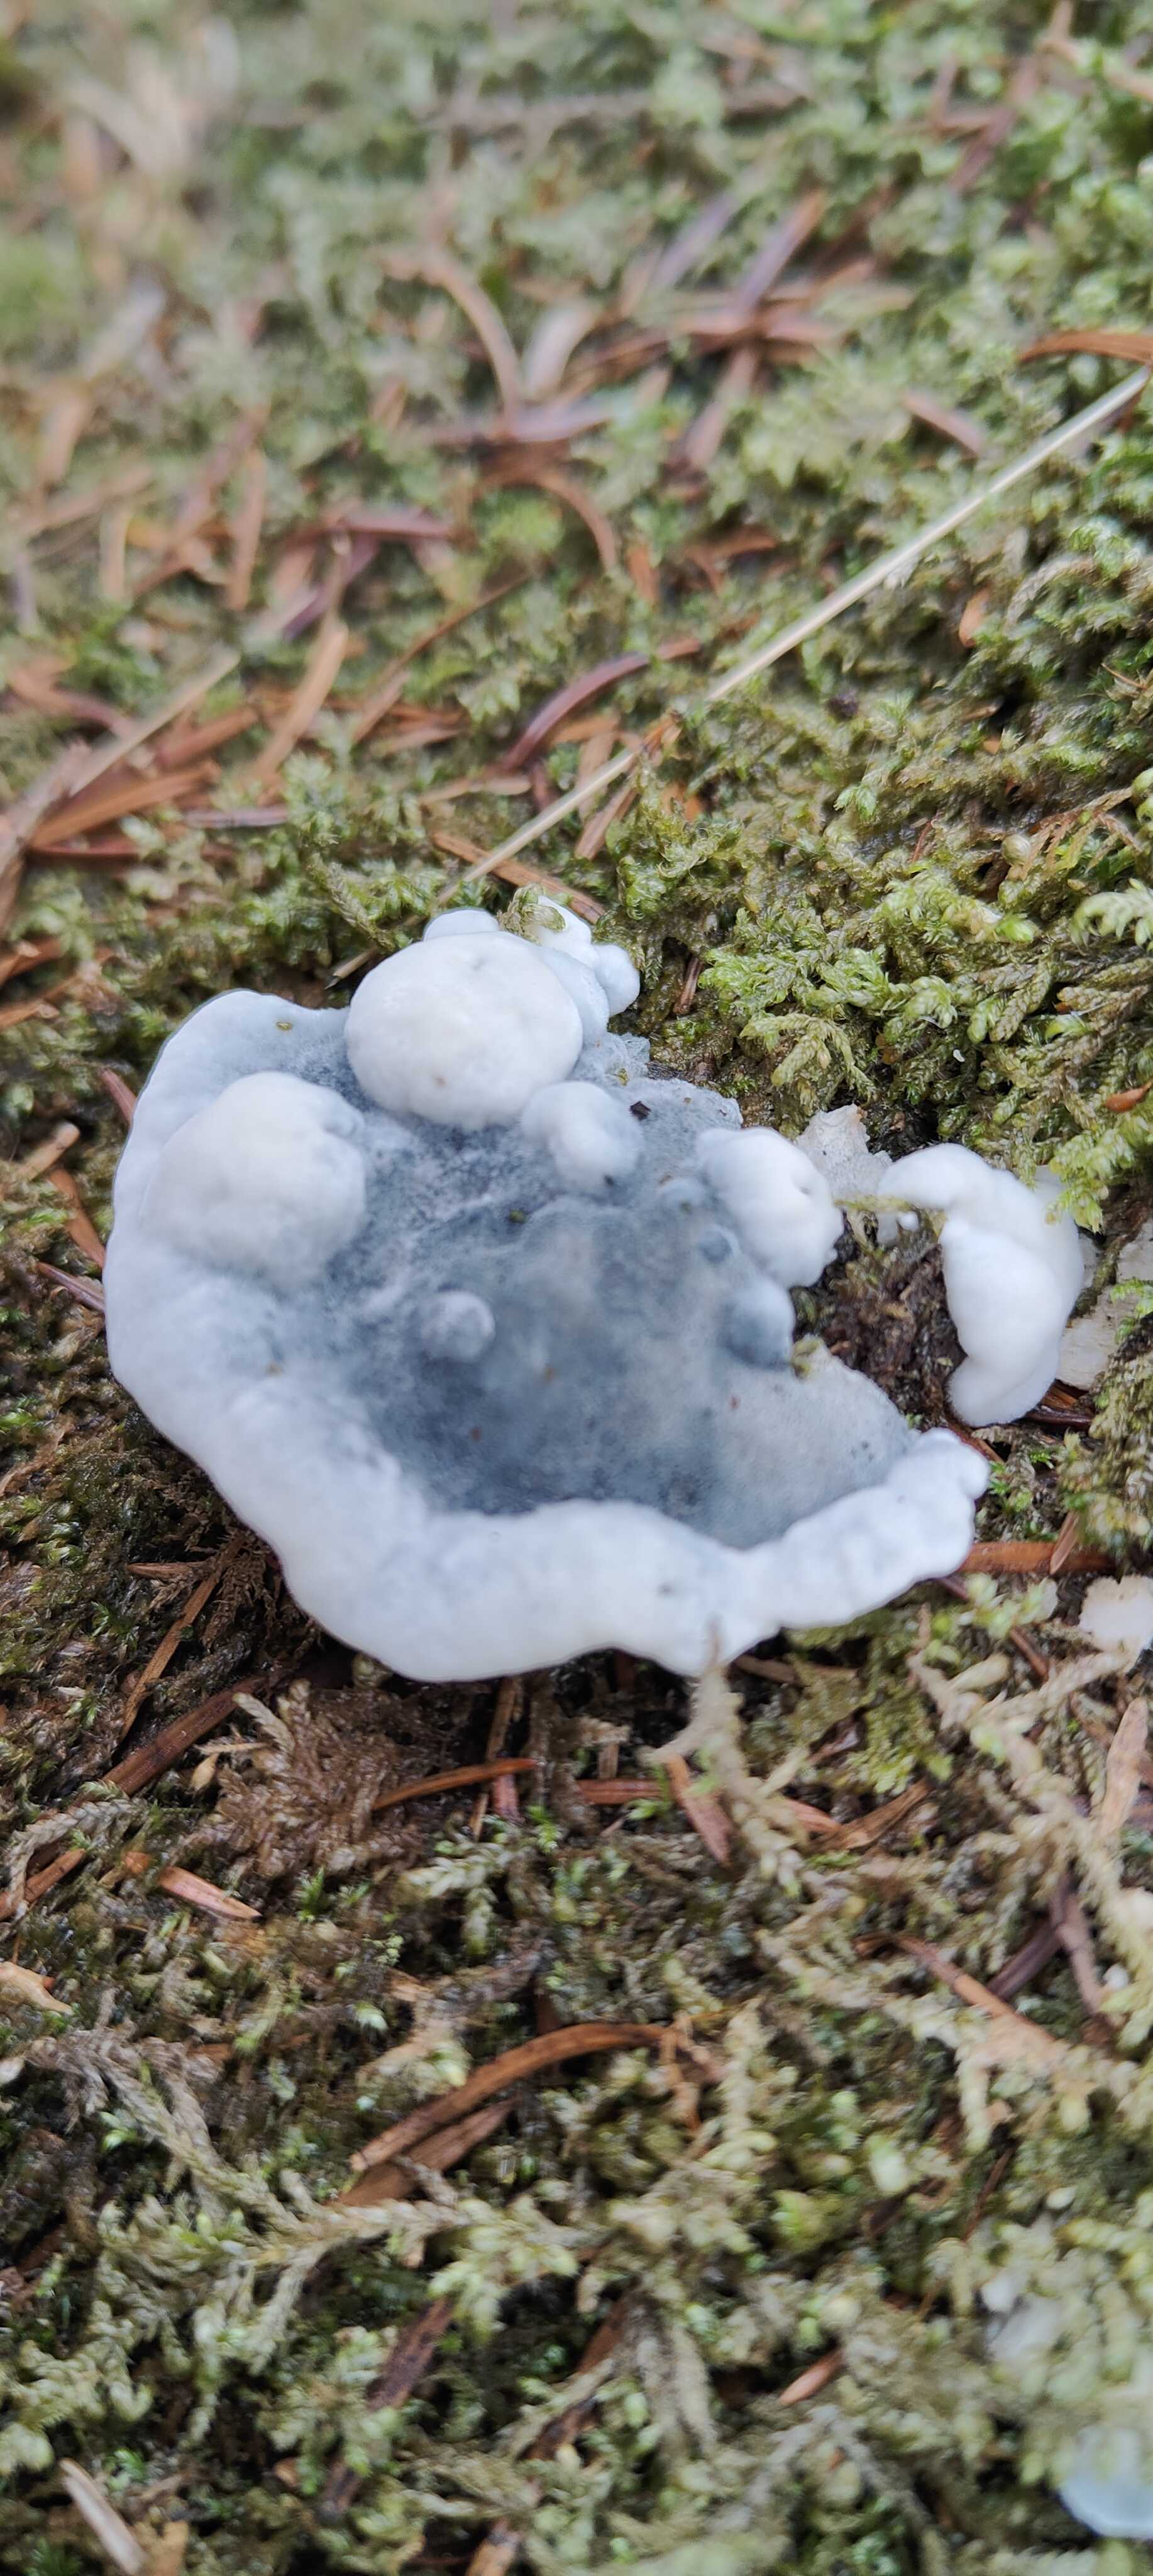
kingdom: Fungi
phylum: Basidiomycota
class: Agaricomycetes
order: Polyporales
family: Polyporaceae
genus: Cyanosporus
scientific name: Cyanosporus caesius
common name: blålig kødporesvamp
